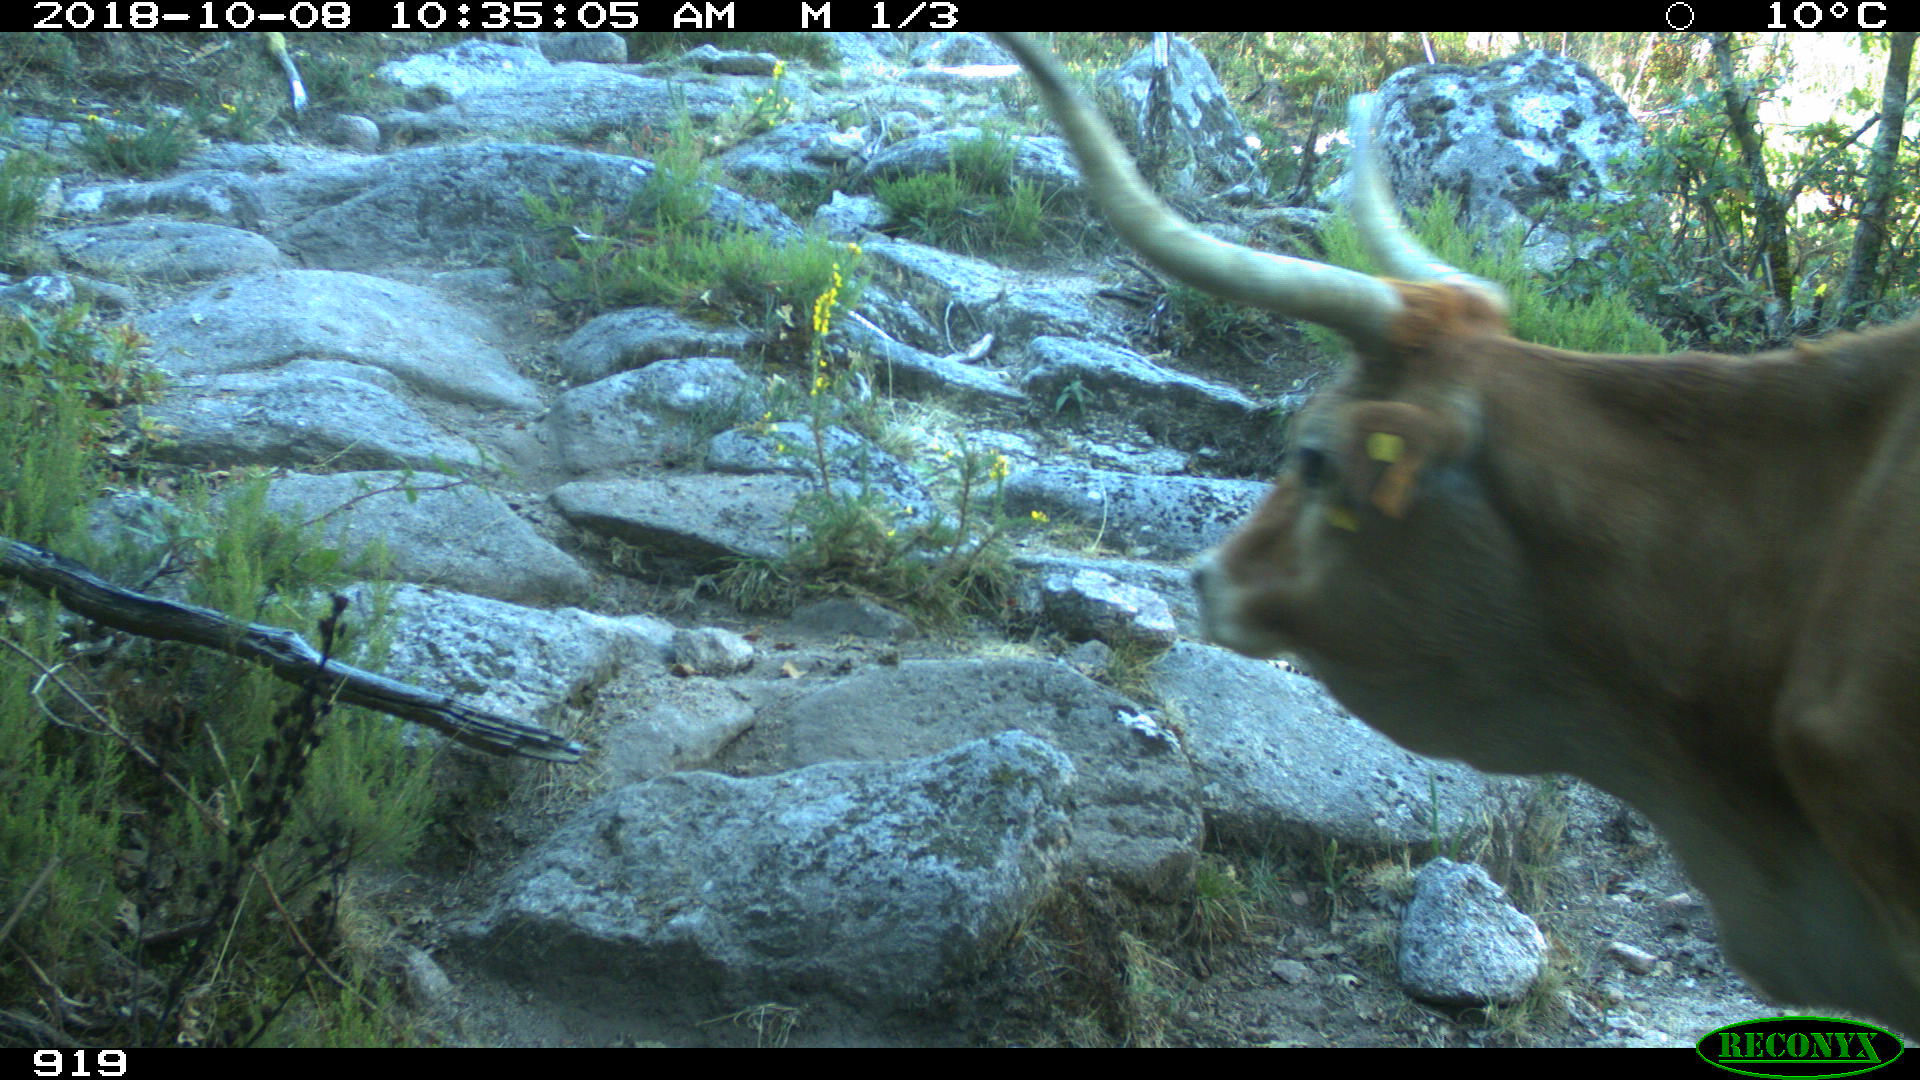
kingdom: Animalia
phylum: Chordata
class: Mammalia
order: Artiodactyla
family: Bovidae
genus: Bos
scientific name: Bos taurus
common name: Domesticated cattle
